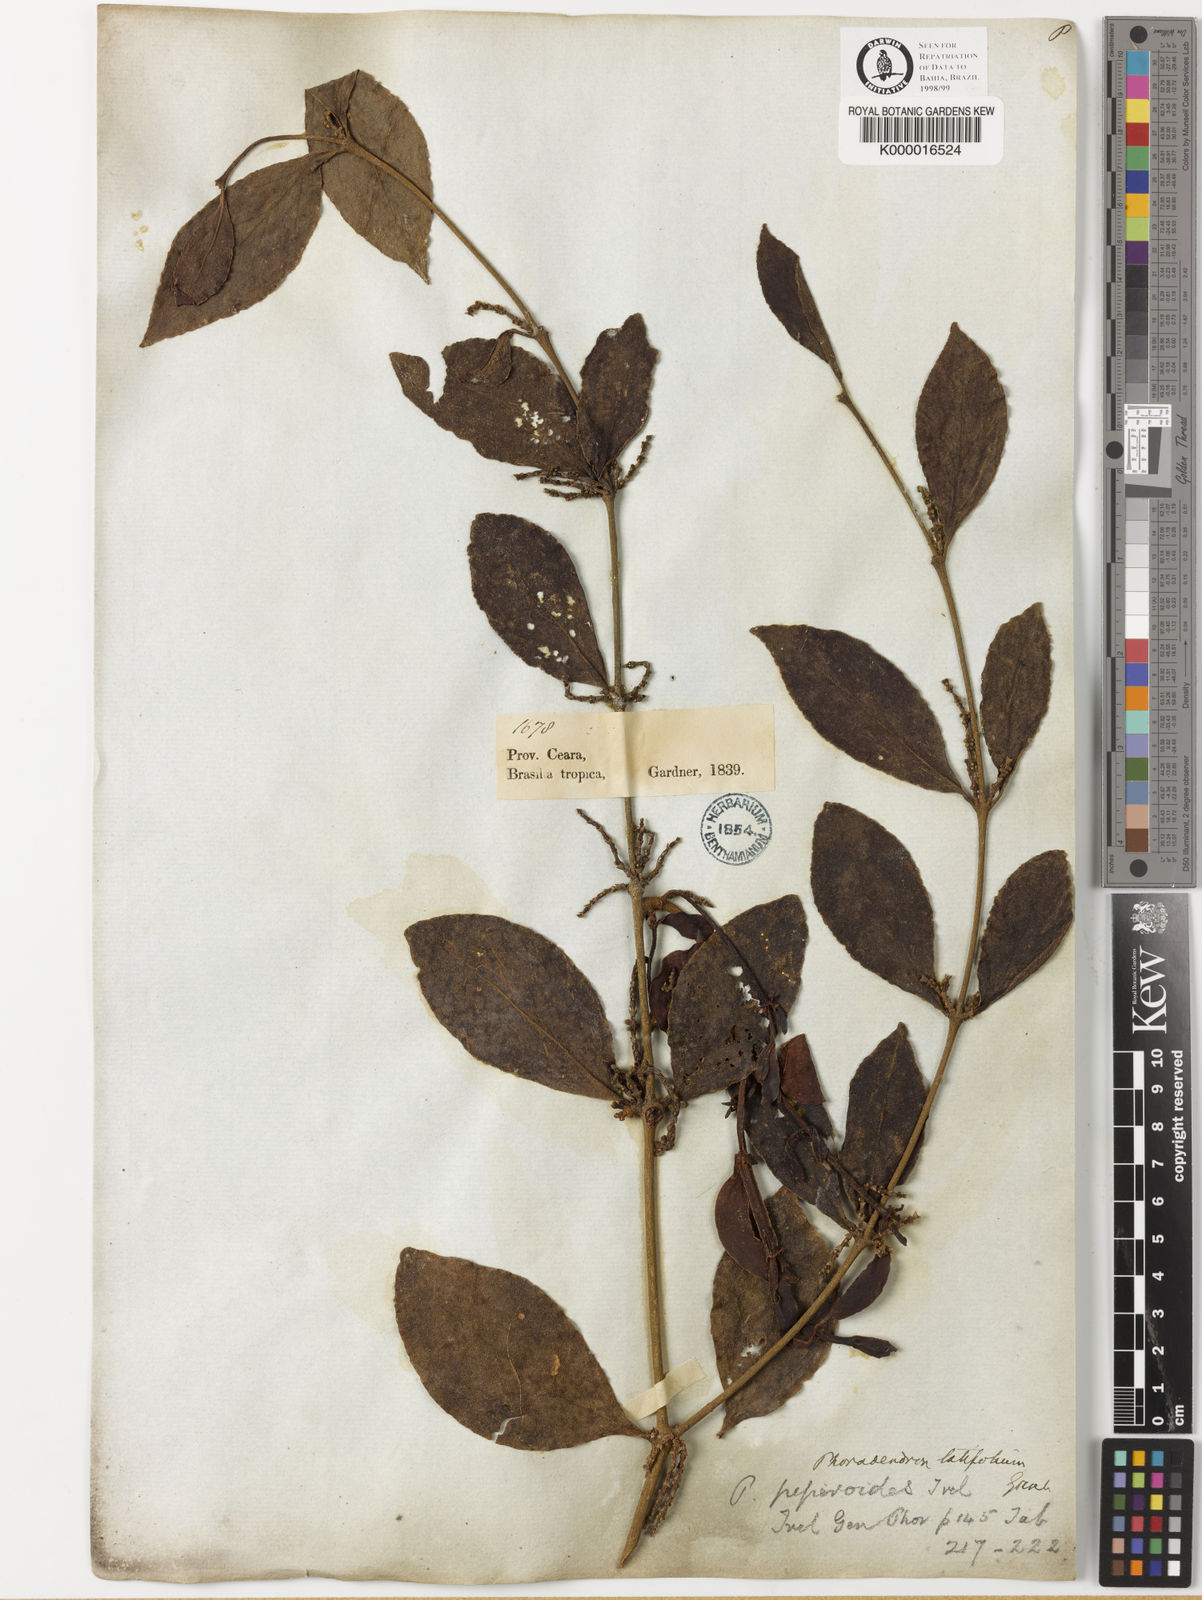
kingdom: Plantae
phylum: Tracheophyta
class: Magnoliopsida
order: Santalales
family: Viscaceae
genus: Phoradendron
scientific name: Phoradendron piperoides
